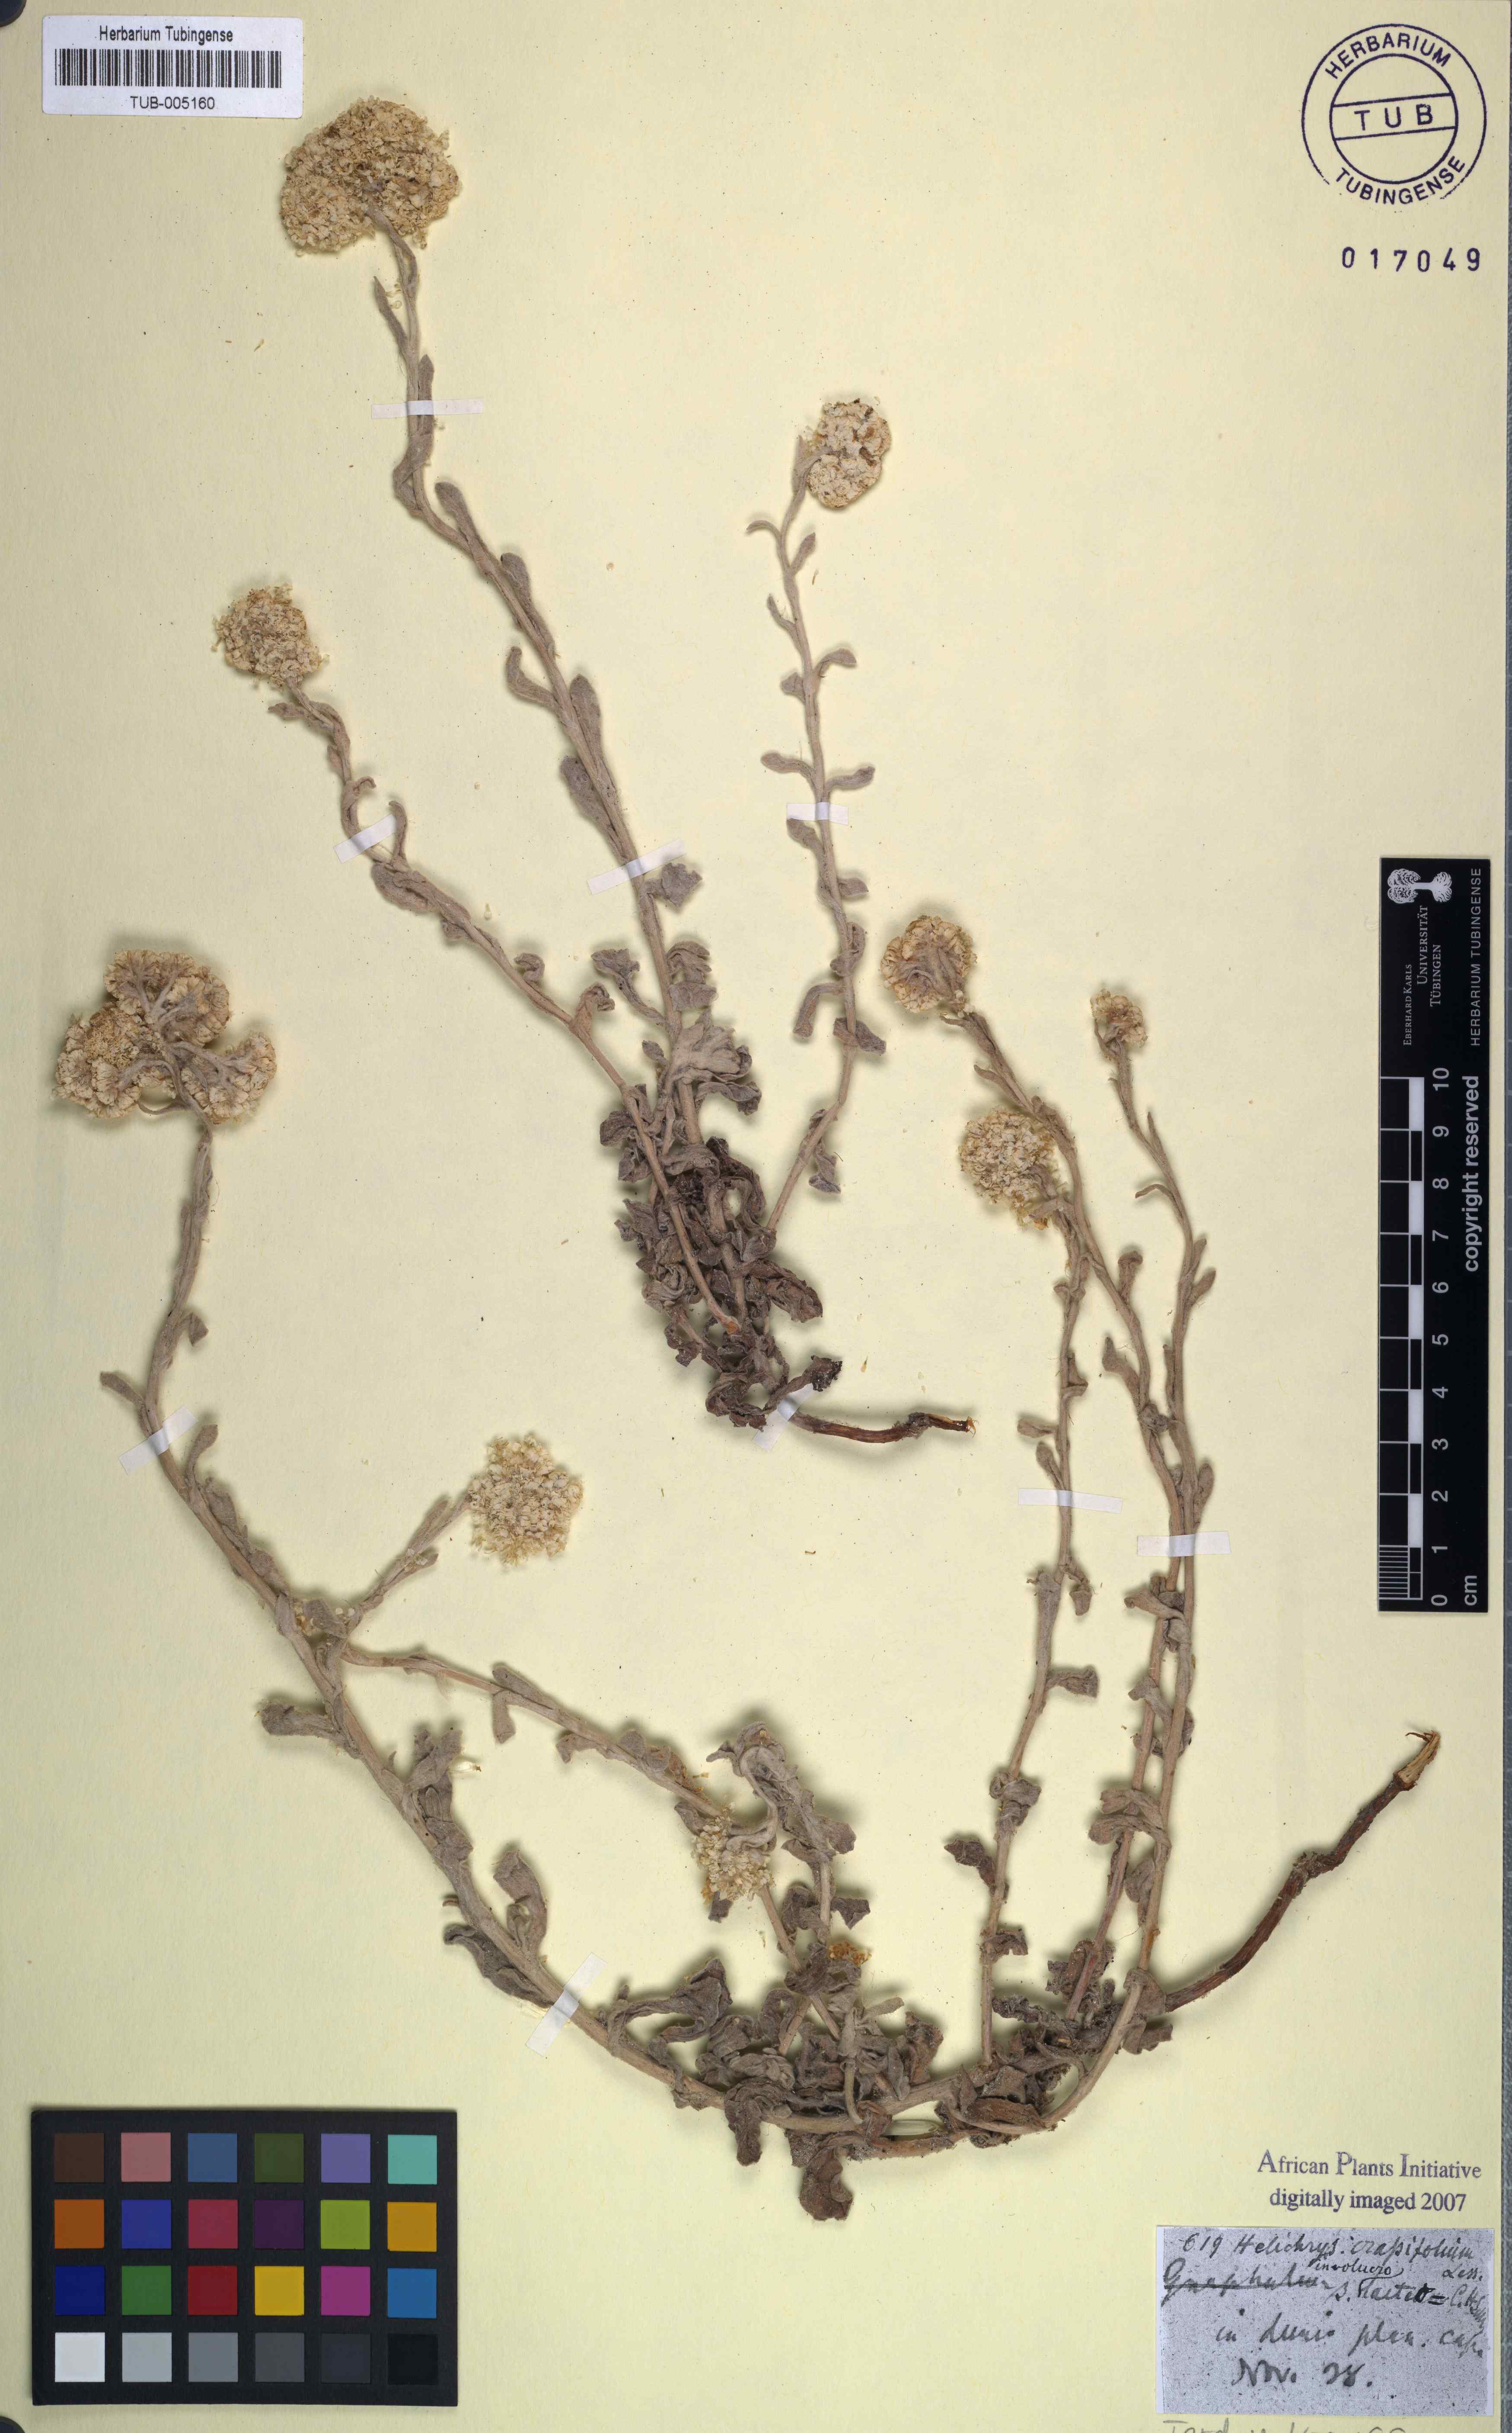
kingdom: Plantae
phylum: Tracheophyta
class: Magnoliopsida
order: Asterales
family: Asteraceae
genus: Helichrysum
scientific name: Helichrysum crassifolium
